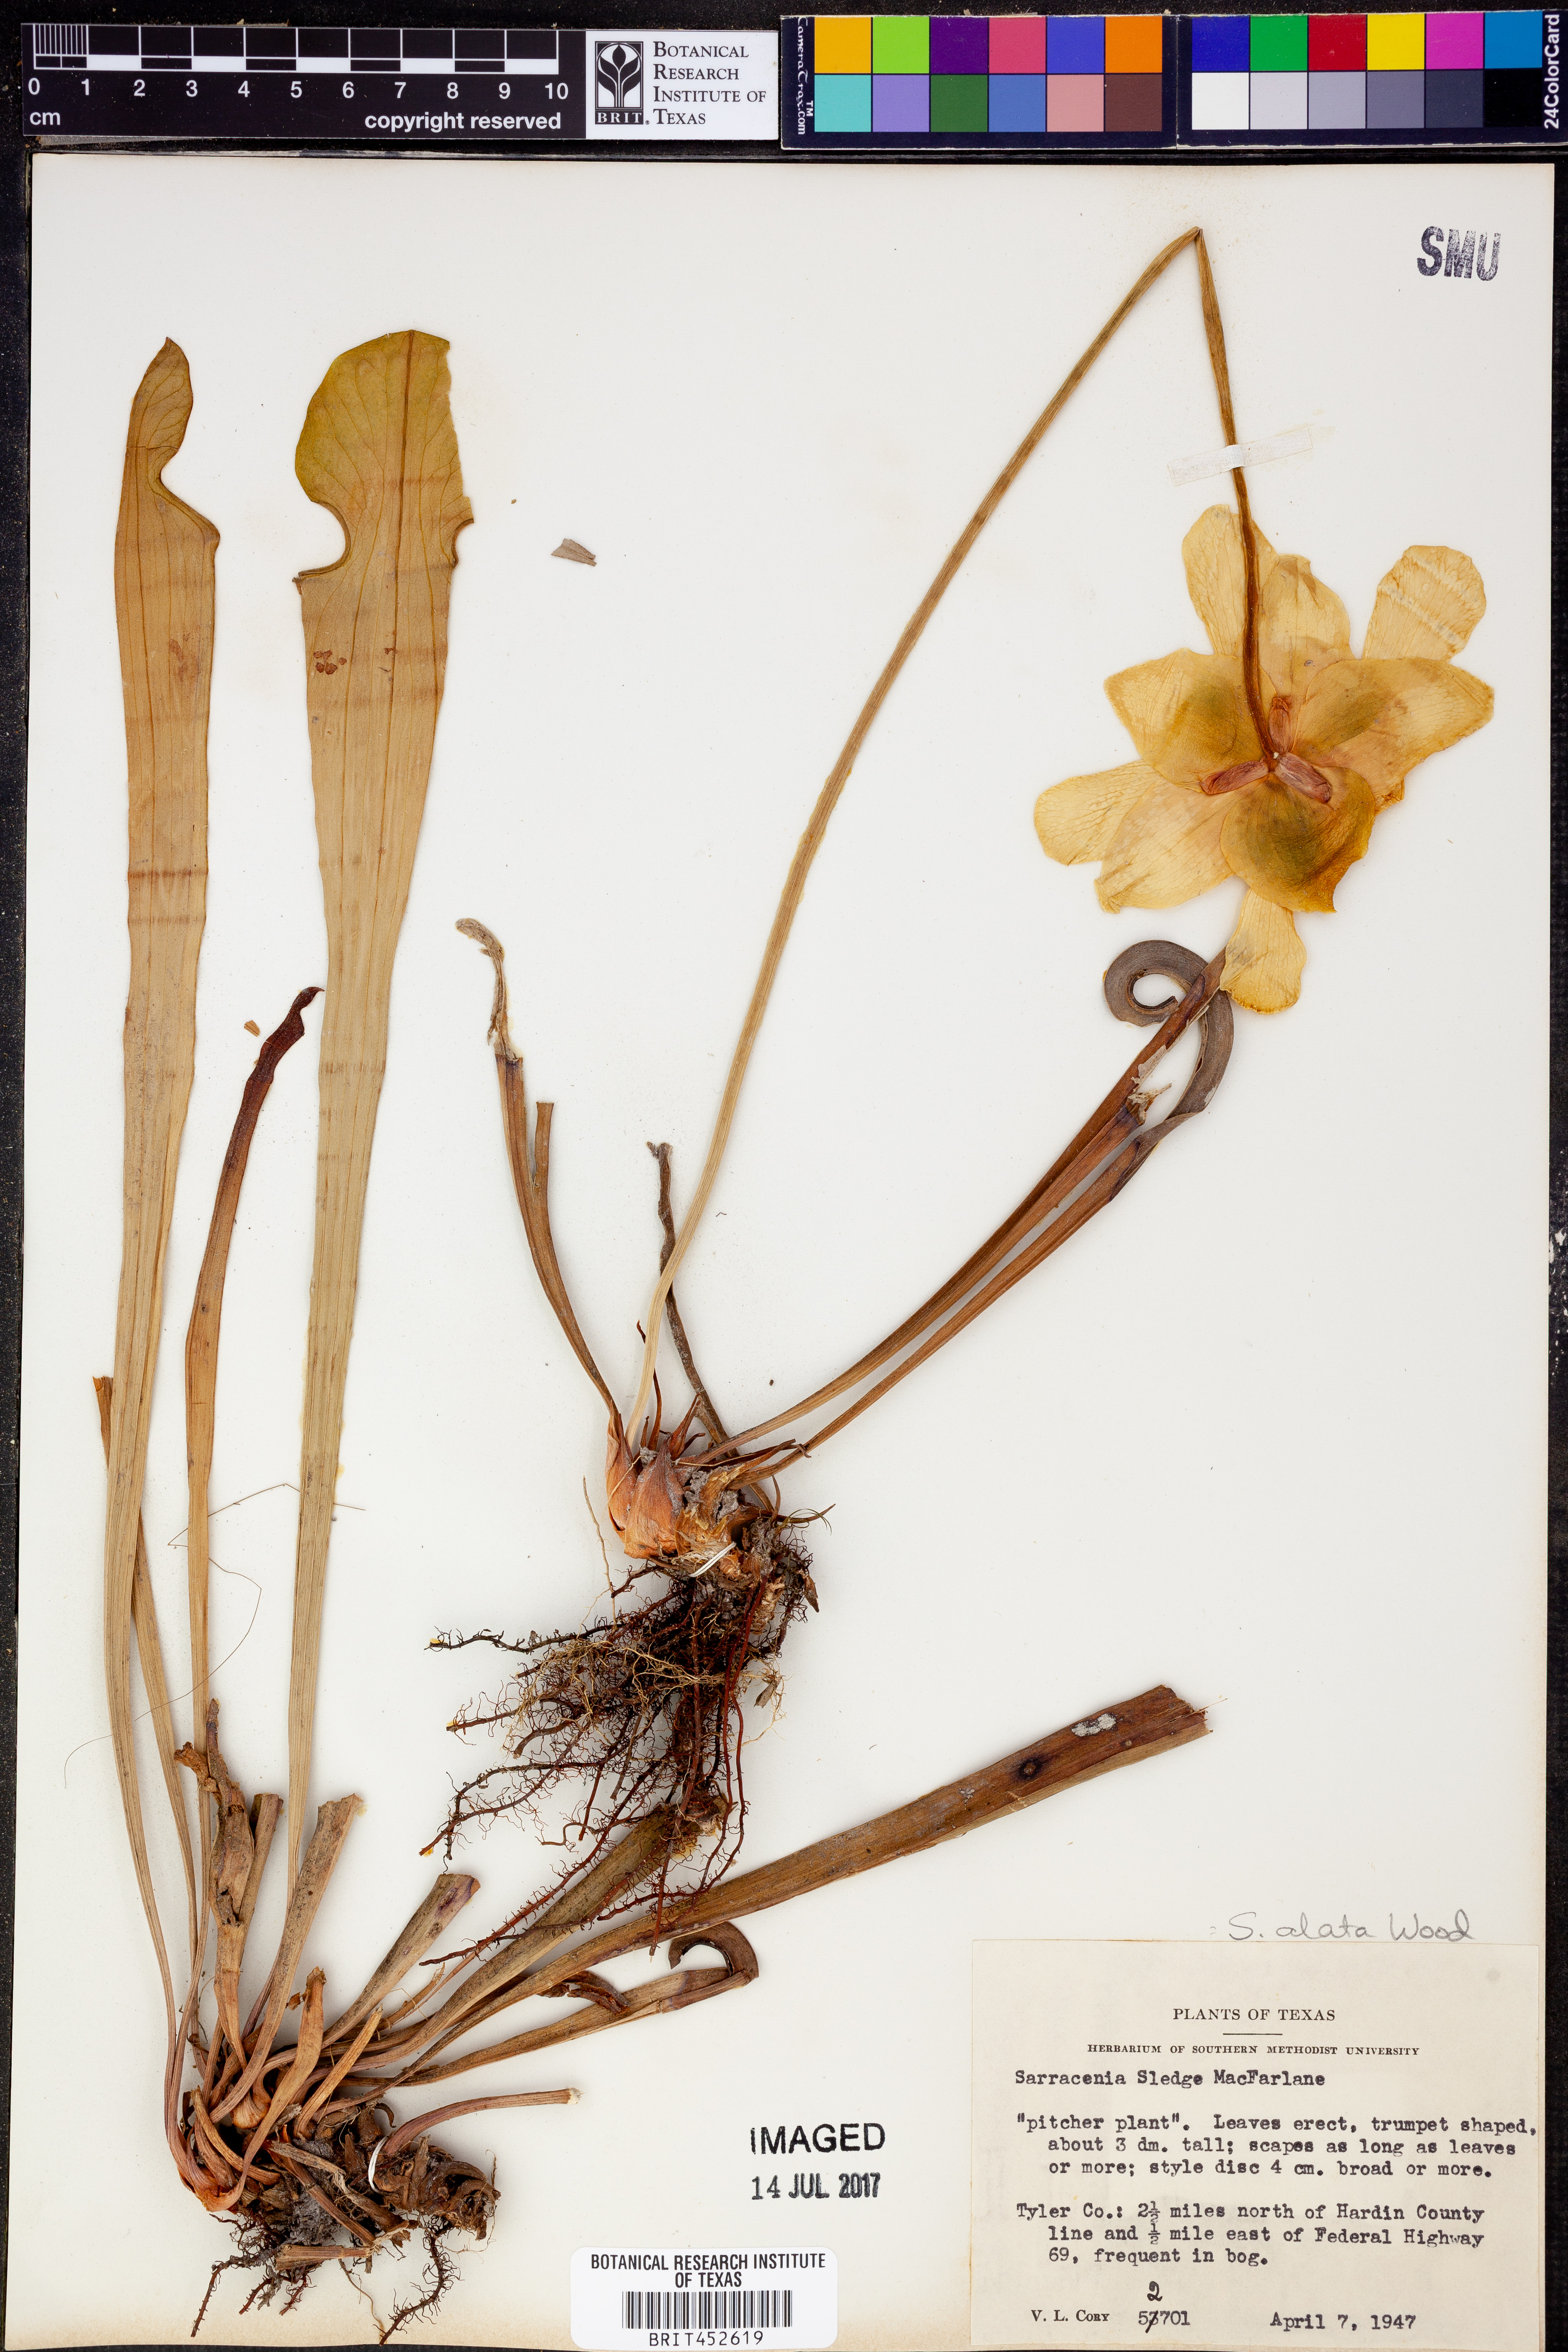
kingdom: Plantae
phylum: Tracheophyta
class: Magnoliopsida
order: Ericales
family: Sarraceniaceae
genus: Sarracenia
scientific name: Sarracenia alata
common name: Yellow trumpets
